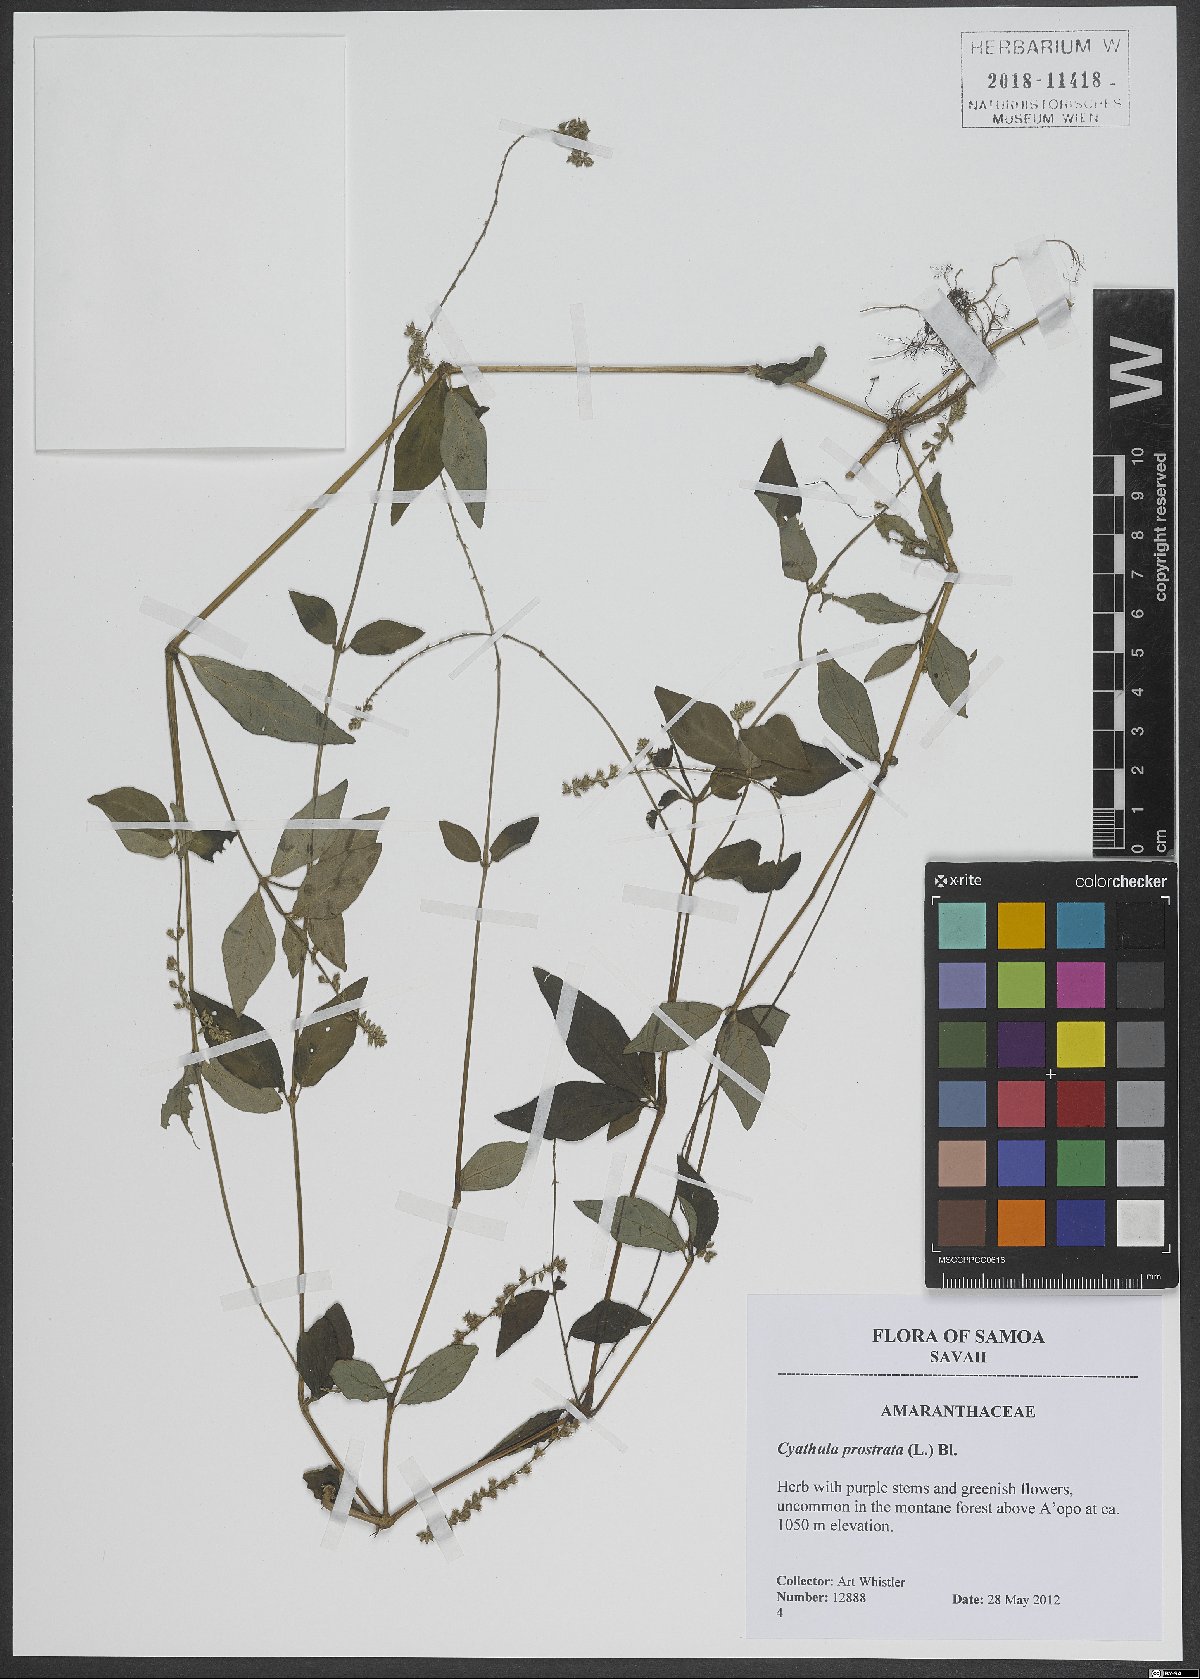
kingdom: Plantae
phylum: Tracheophyta
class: Magnoliopsida
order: Caryophyllales
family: Amaranthaceae
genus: Cyathula
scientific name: Cyathula prostrata
